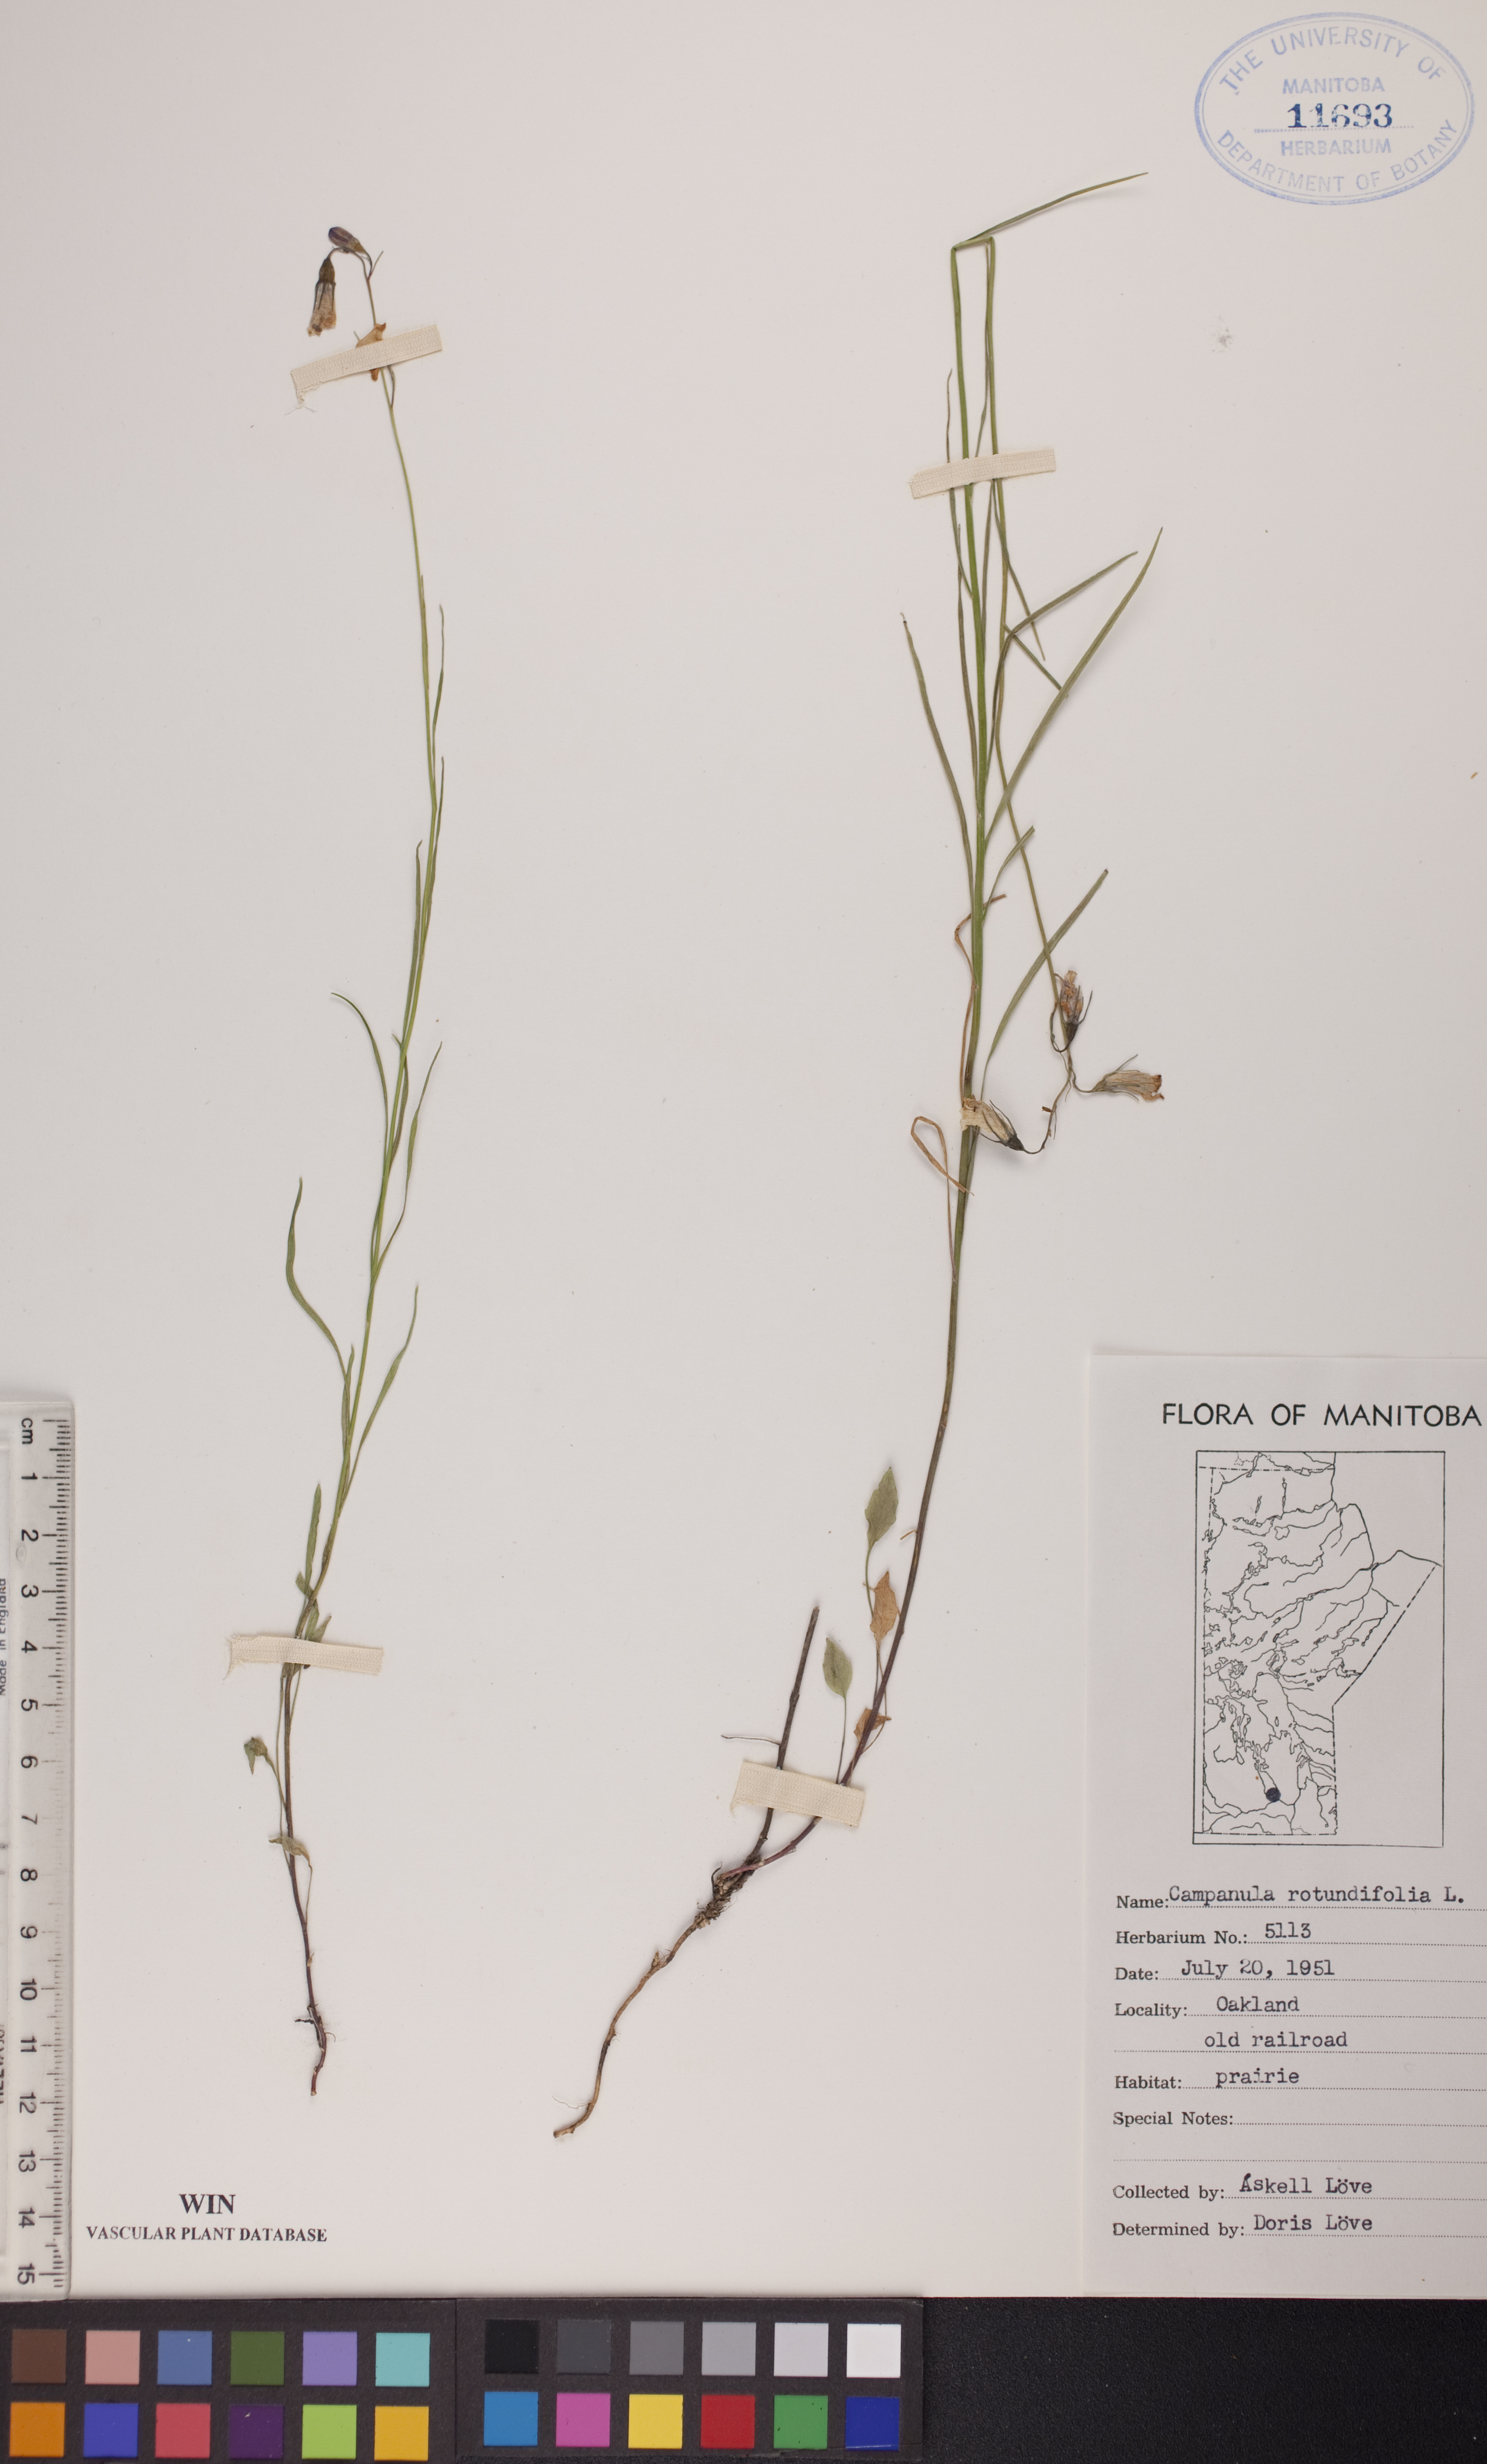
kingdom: Plantae
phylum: Tracheophyta
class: Magnoliopsida
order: Asterales
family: Campanulaceae
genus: Campanula
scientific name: Campanula rotundifolia
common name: Harebell
